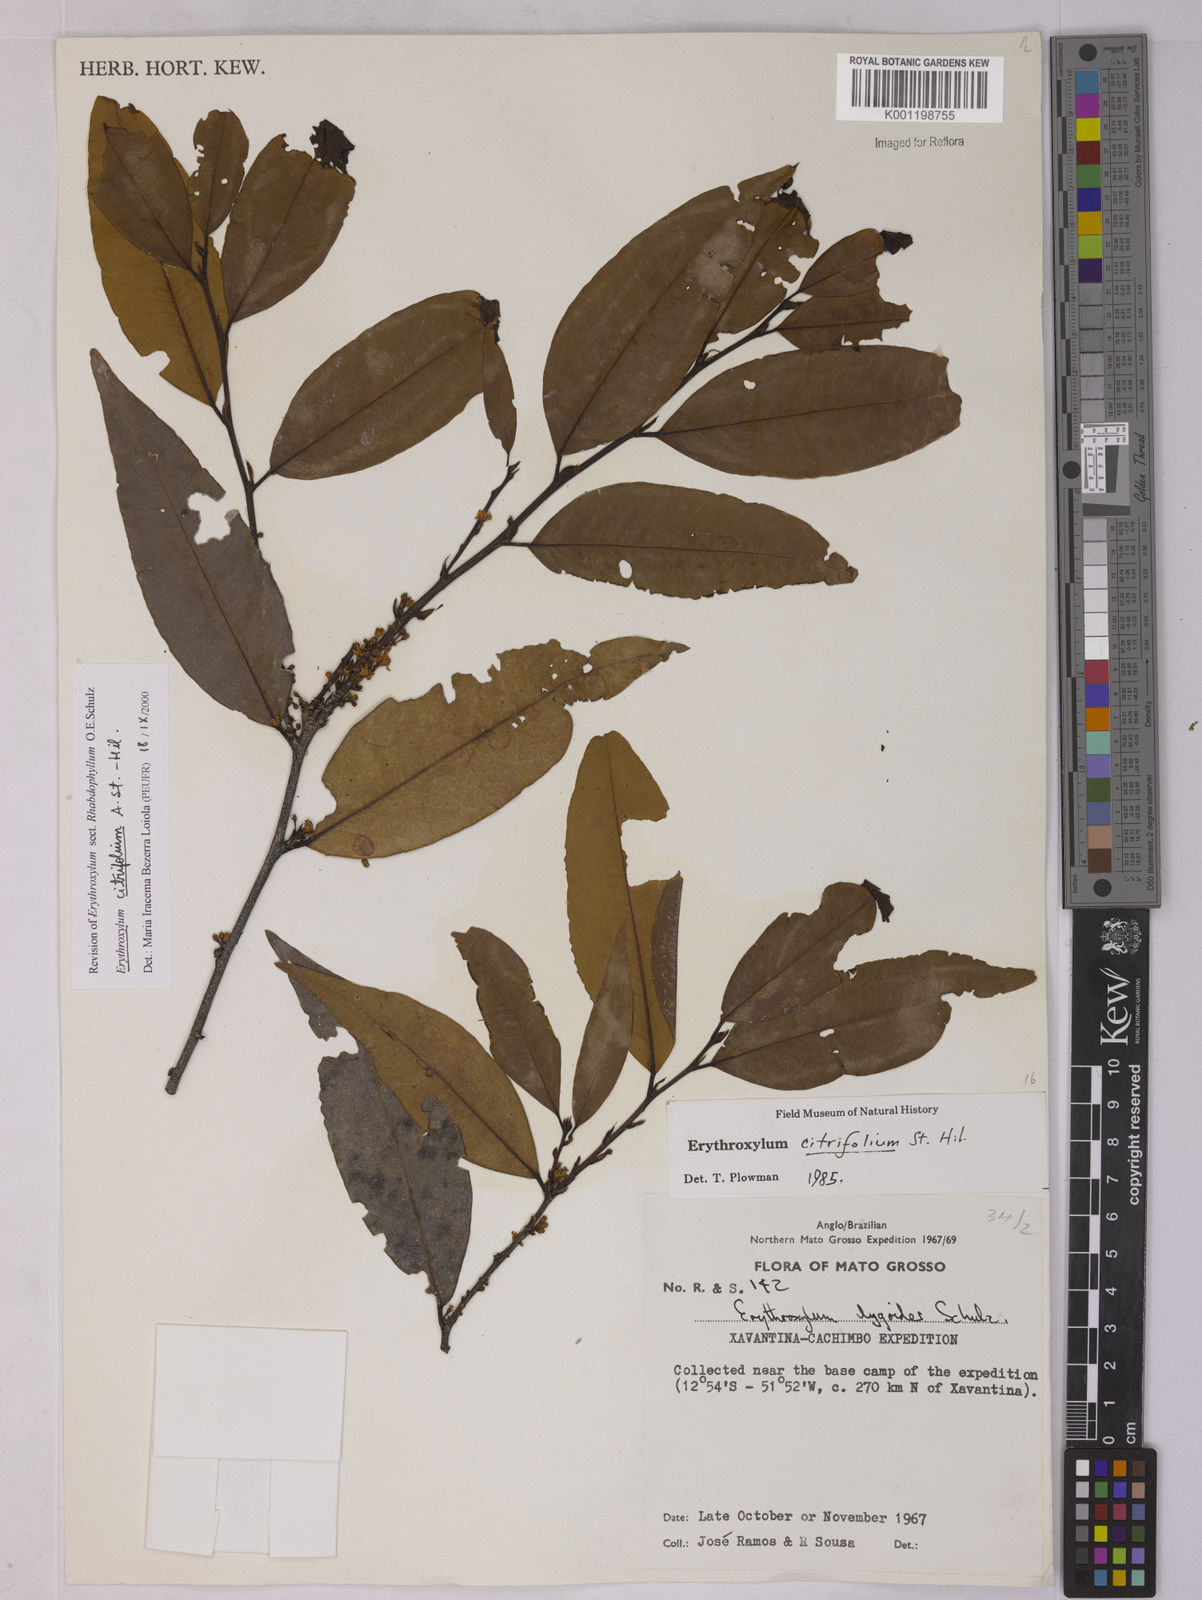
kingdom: Plantae
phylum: Tracheophyta
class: Magnoliopsida
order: Malpighiales
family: Erythroxylaceae
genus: Erythroxylum
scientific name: Erythroxylum citrifolium
